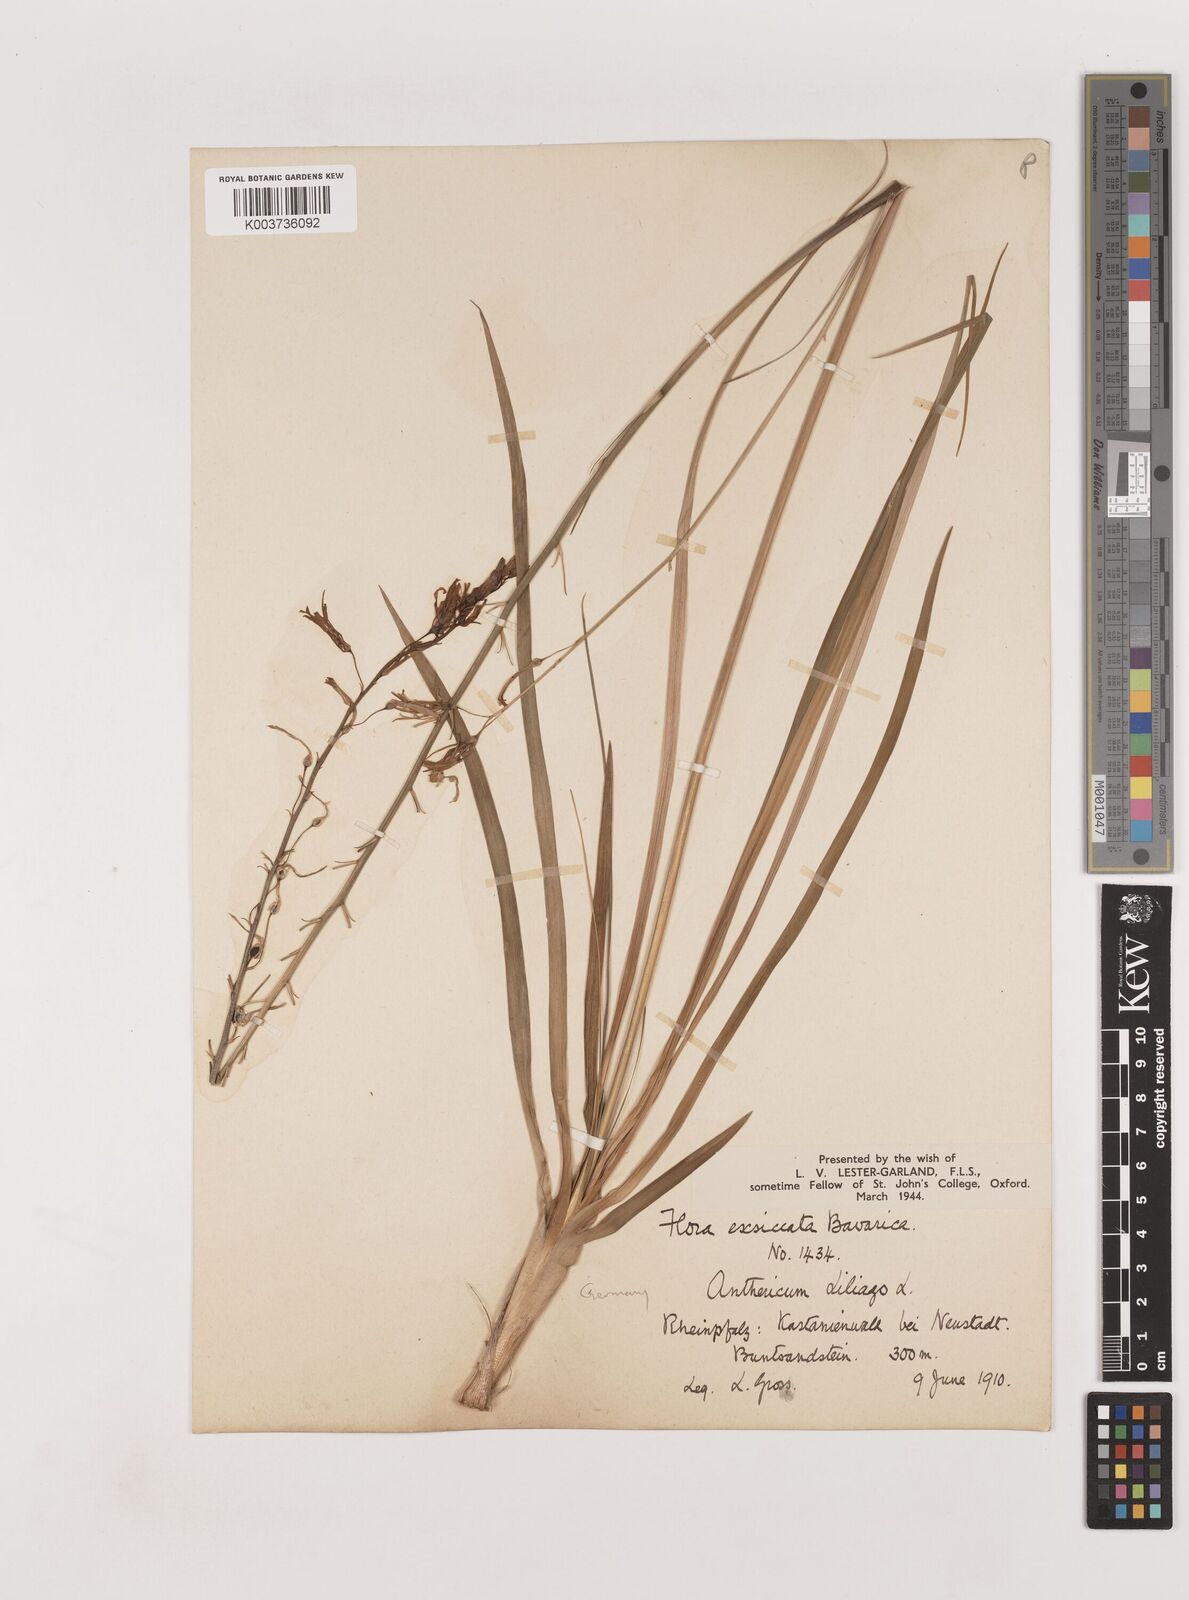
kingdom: Plantae
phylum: Tracheophyta
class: Liliopsida
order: Asparagales
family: Asparagaceae
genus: Anthericum
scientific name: Anthericum liliago
